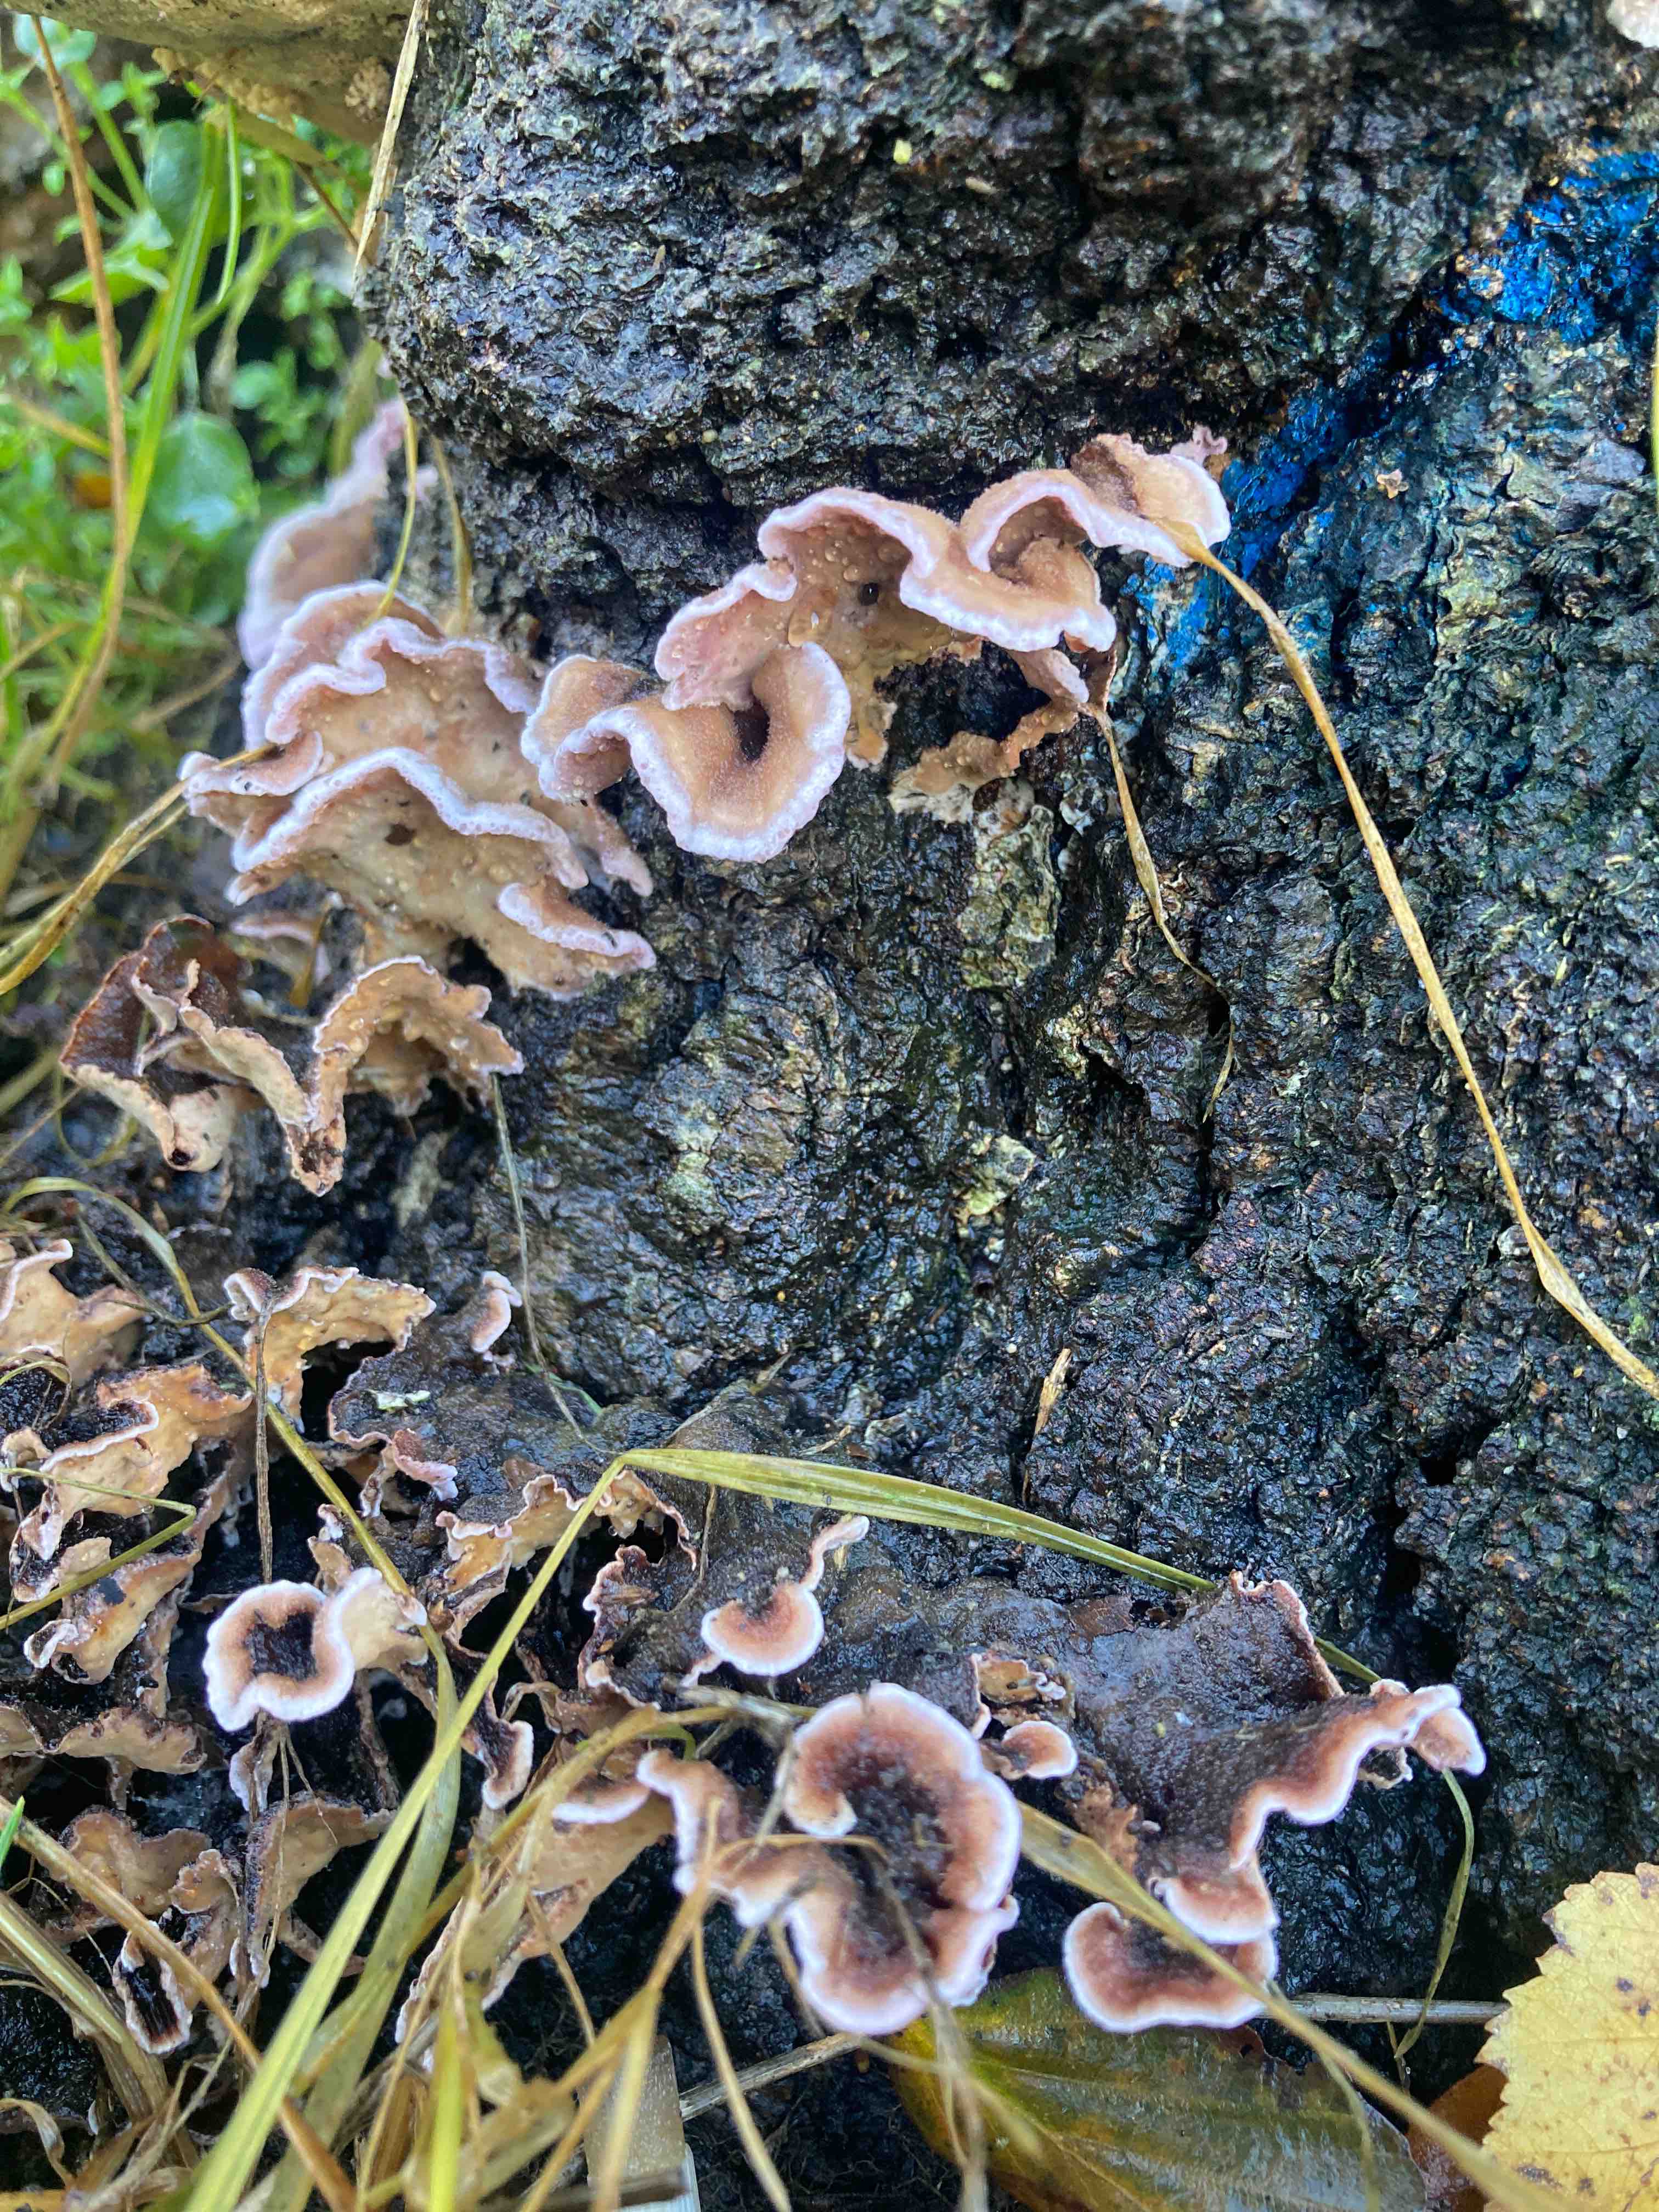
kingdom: Fungi
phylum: Basidiomycota
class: Agaricomycetes
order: Agaricales
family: Cyphellaceae
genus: Chondrostereum
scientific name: Chondrostereum purpureum
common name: purpurlædersvamp
